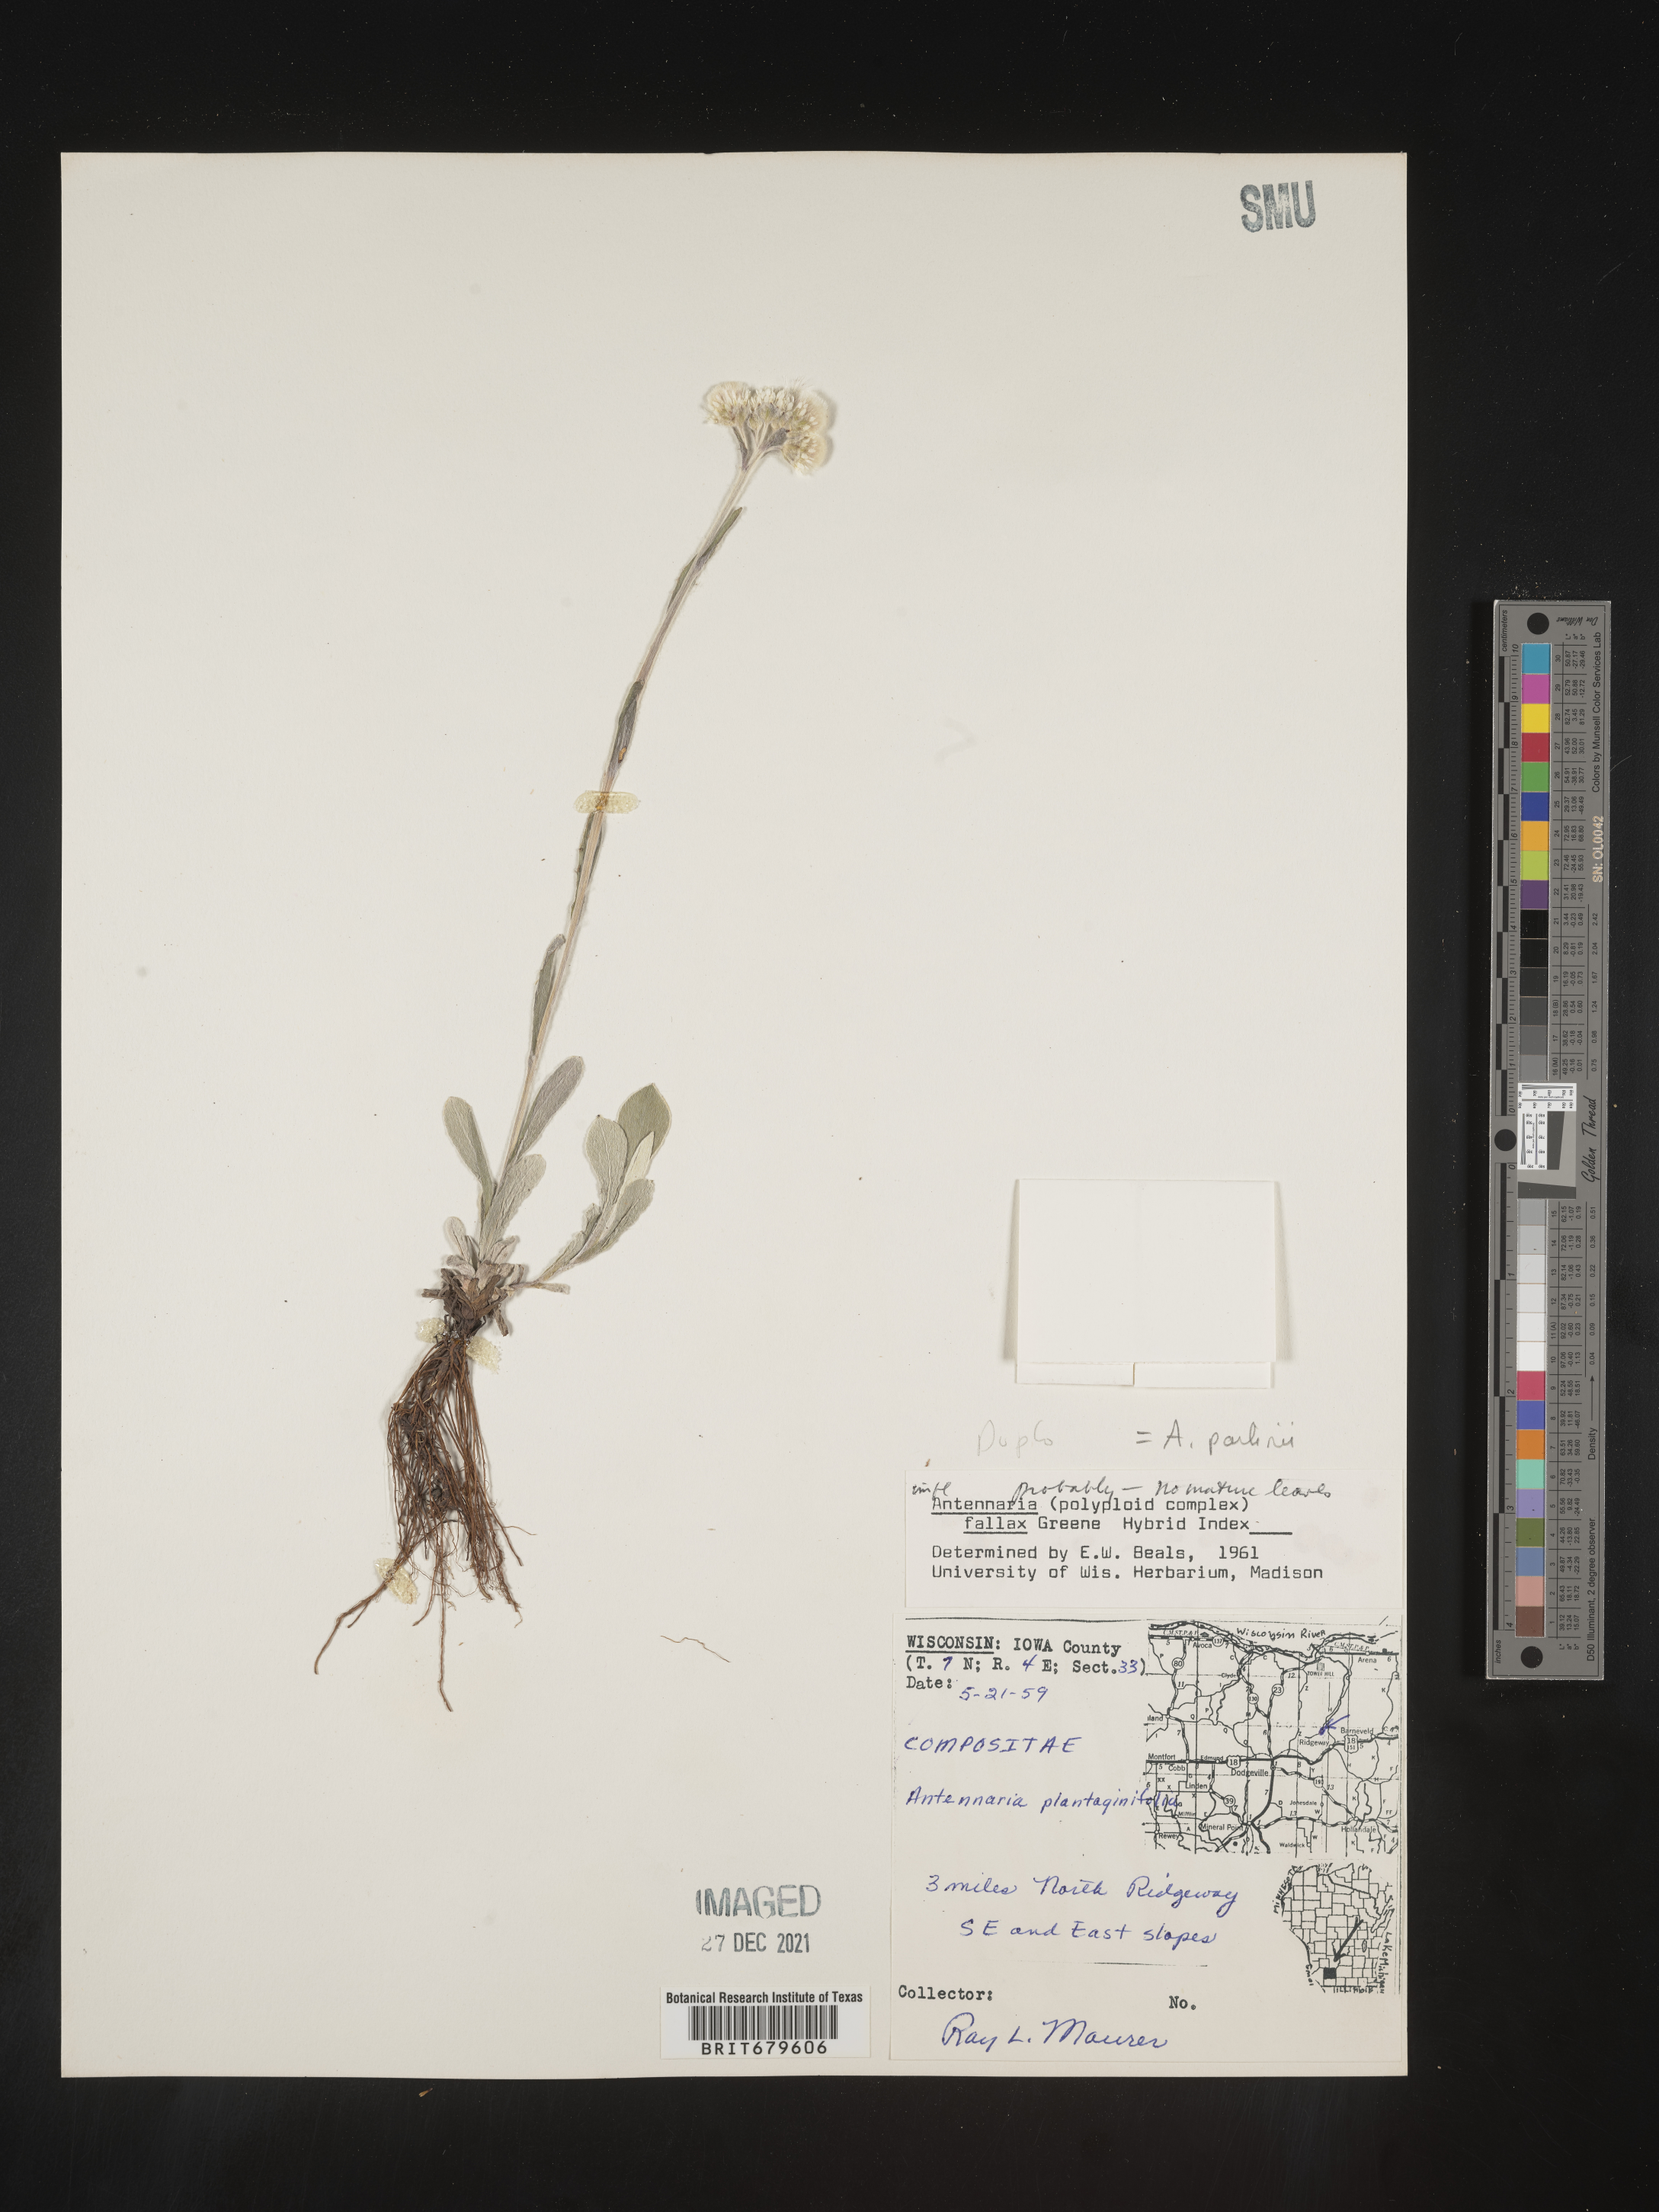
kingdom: Plantae
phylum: Tracheophyta
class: Magnoliopsida
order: Asterales
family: Asteraceae
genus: Antennaria
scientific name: Antennaria parlinii
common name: Parlin's pussytoes
